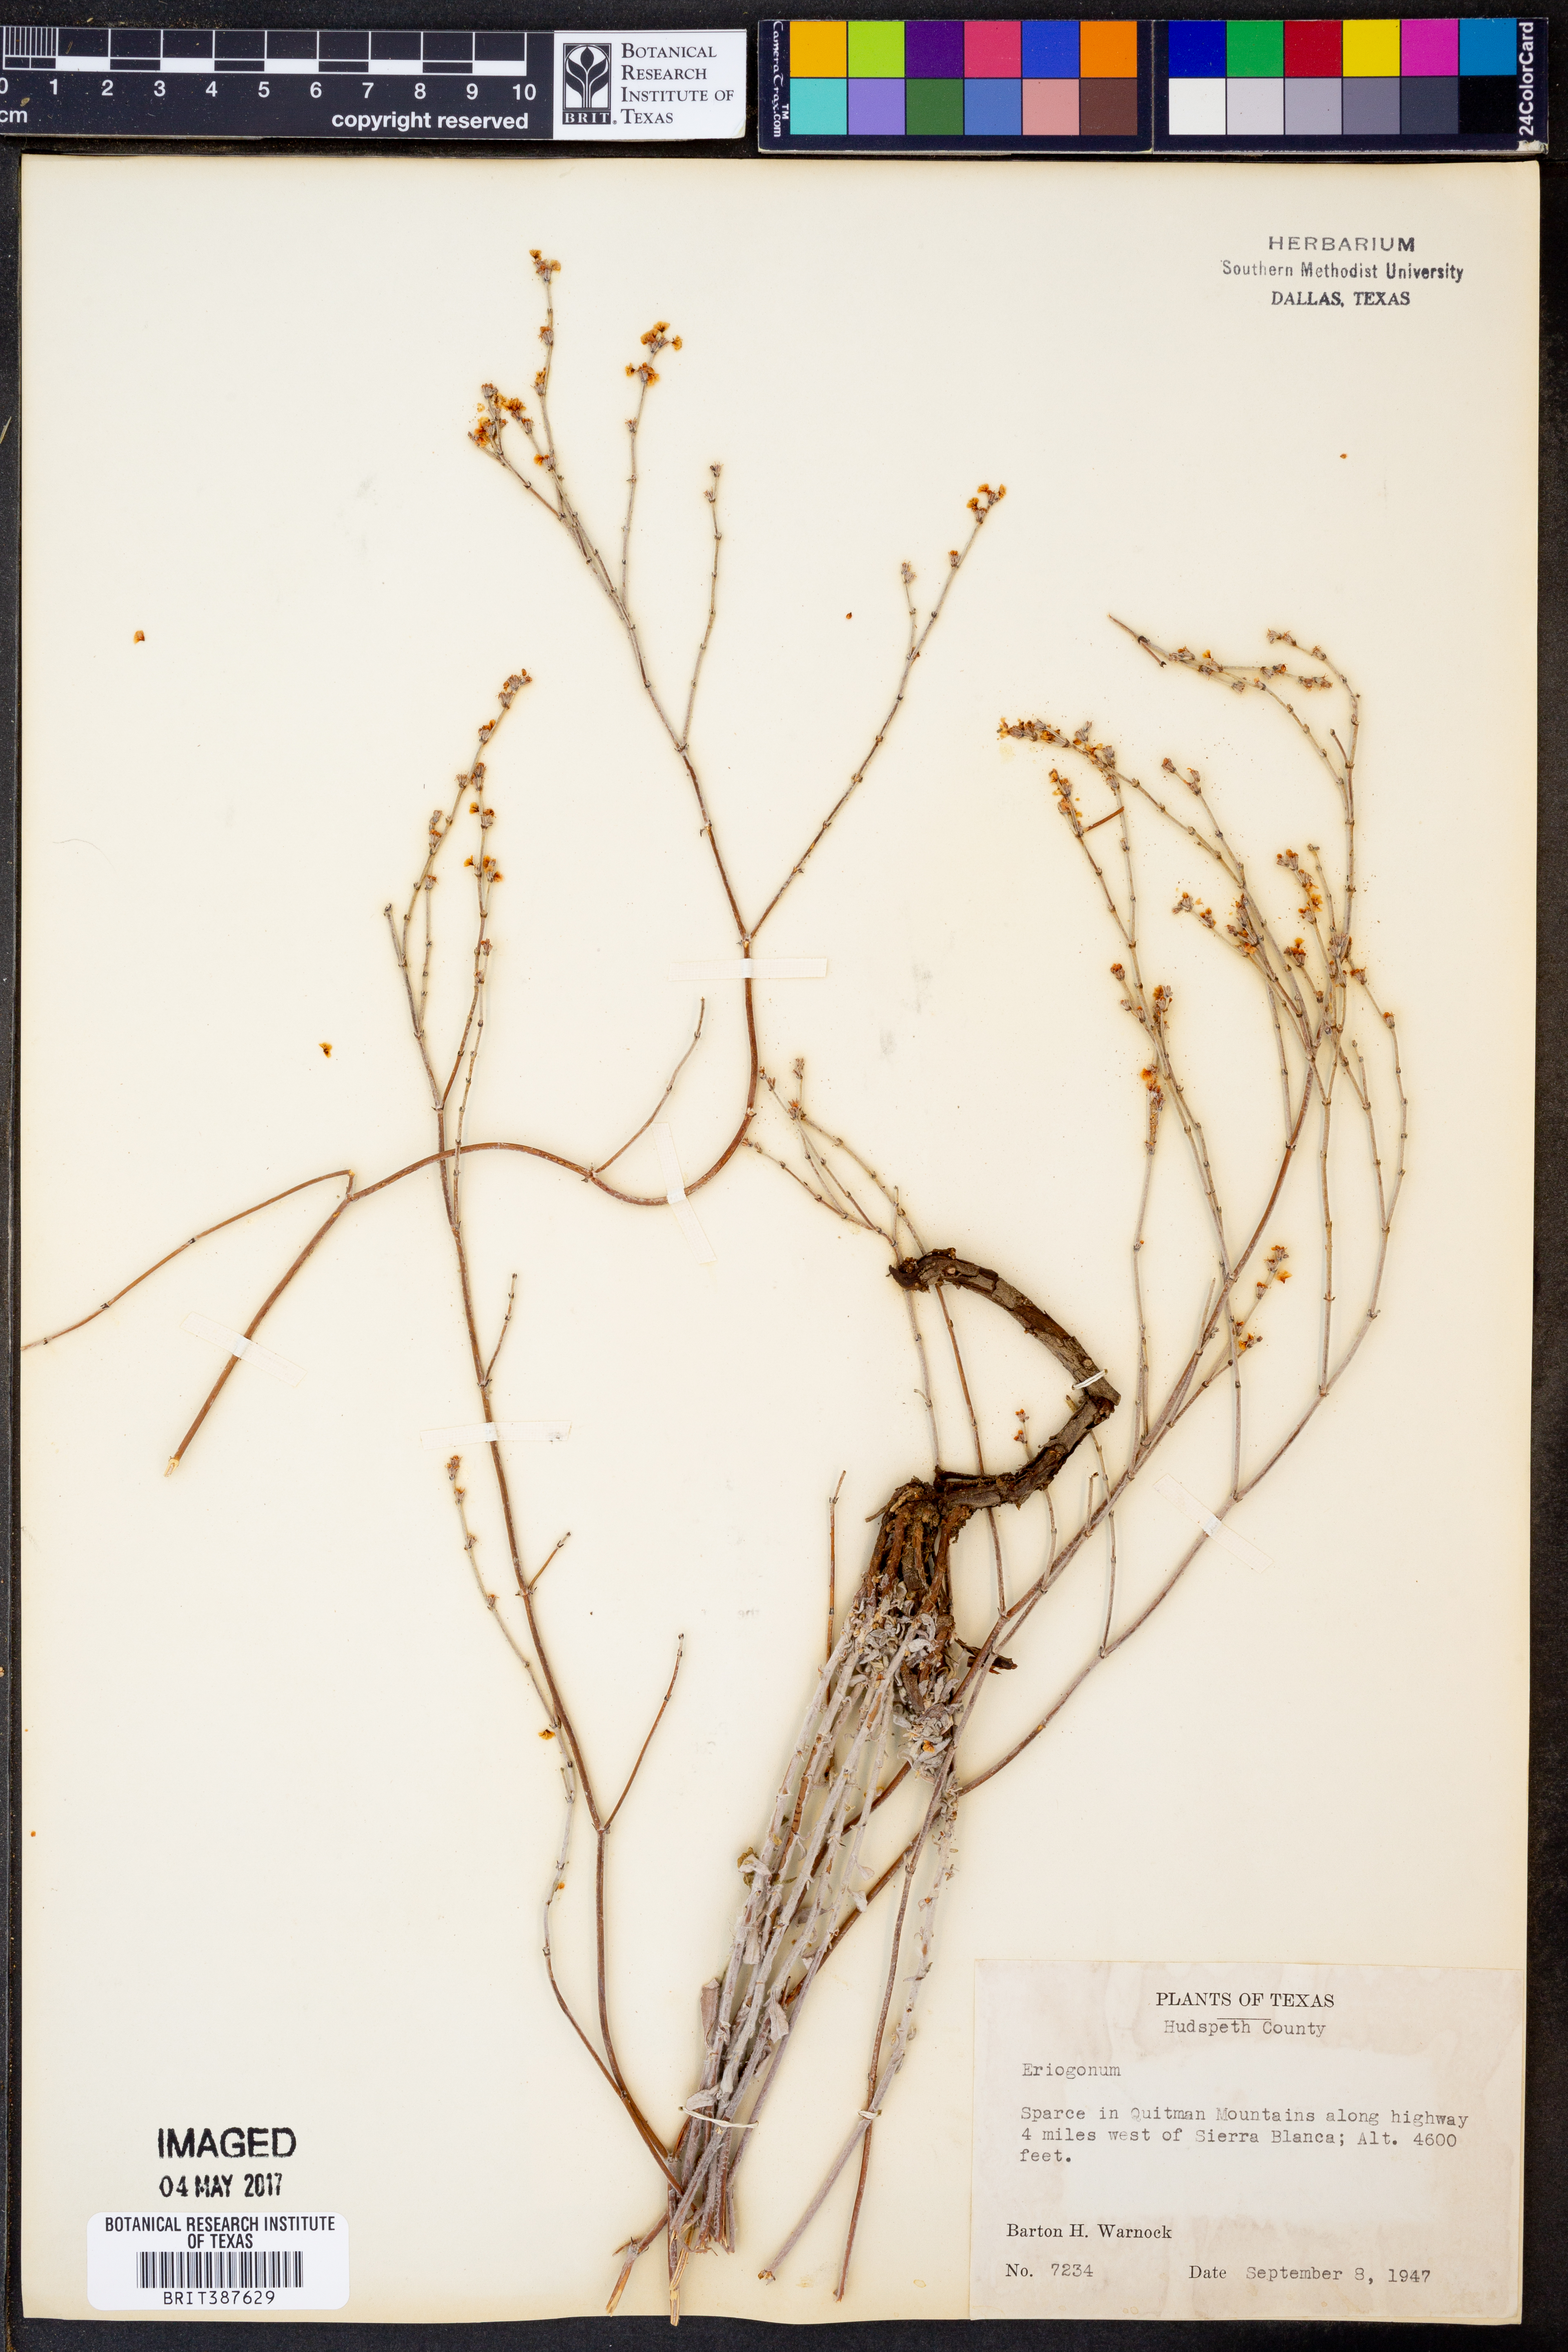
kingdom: Plantae
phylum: Tracheophyta
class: Magnoliopsida
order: Caryophyllales
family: Polygonaceae
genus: Eriogonum
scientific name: Eriogonum
